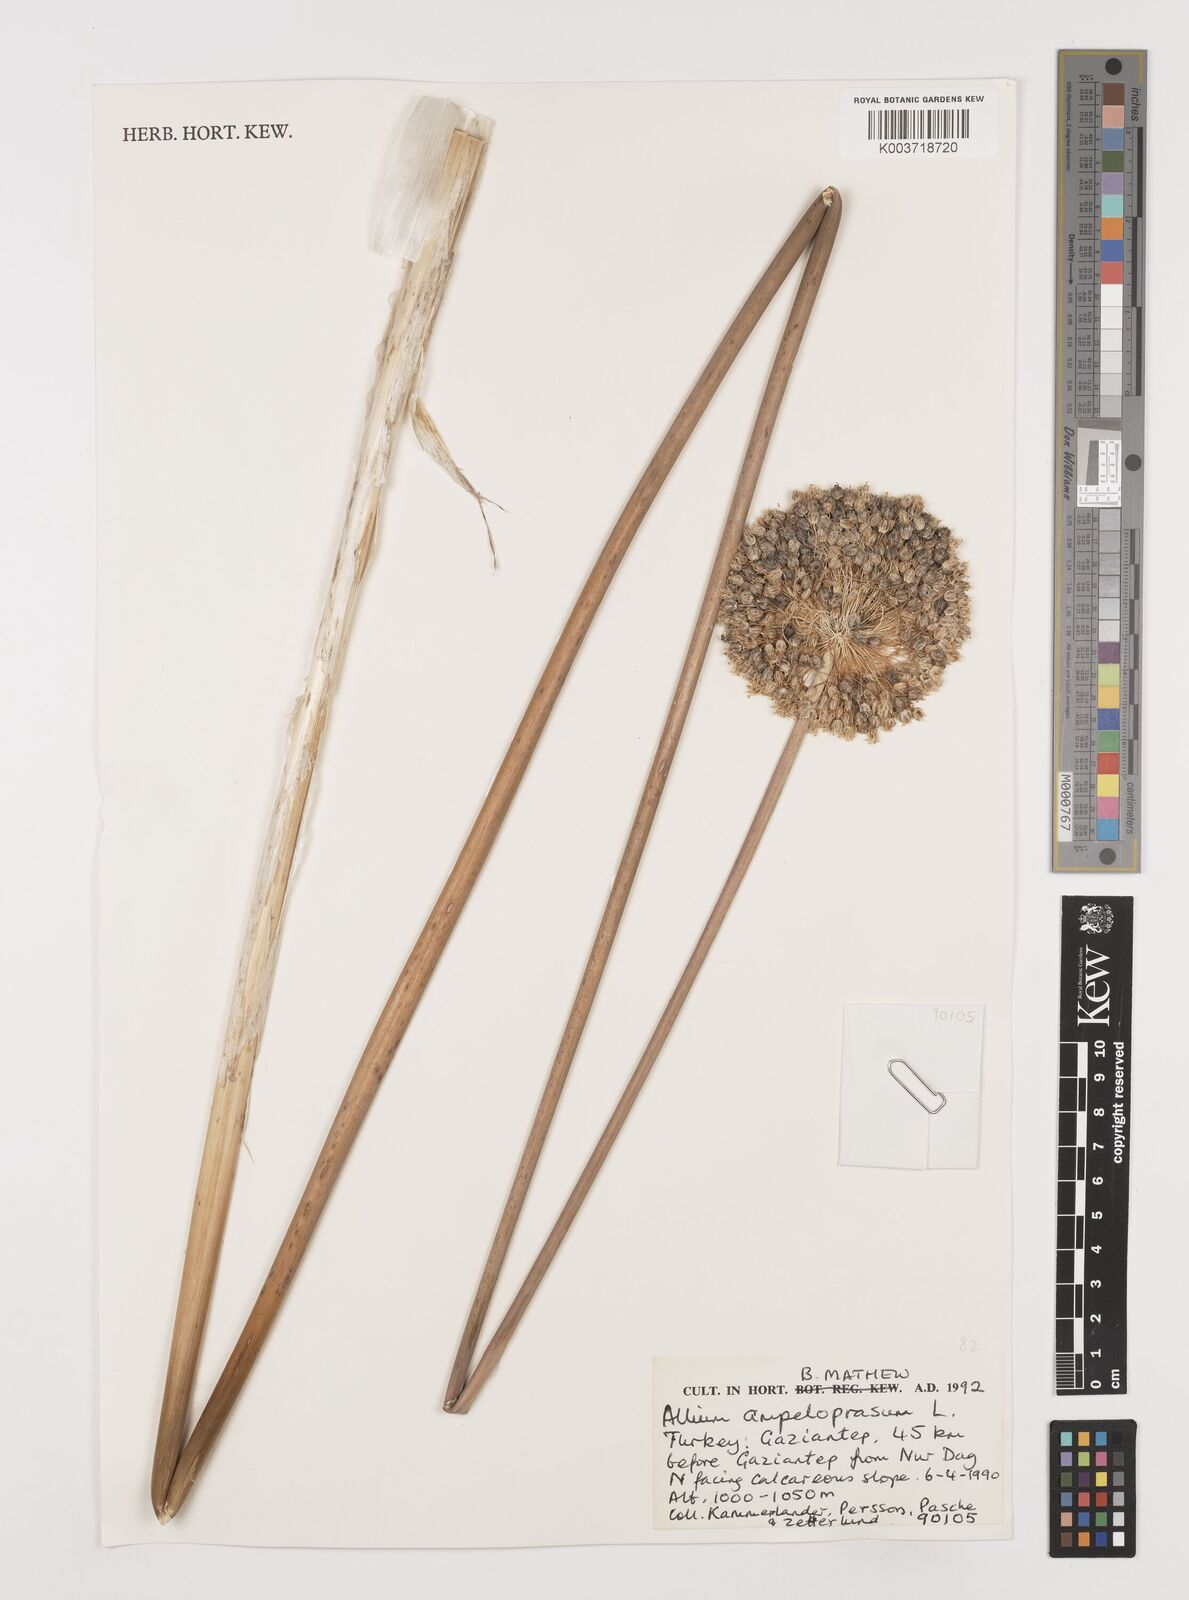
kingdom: Plantae
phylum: Tracheophyta
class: Liliopsida
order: Asparagales
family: Amaryllidaceae
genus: Allium
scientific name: Allium ampeloprasum
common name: Wild leek
